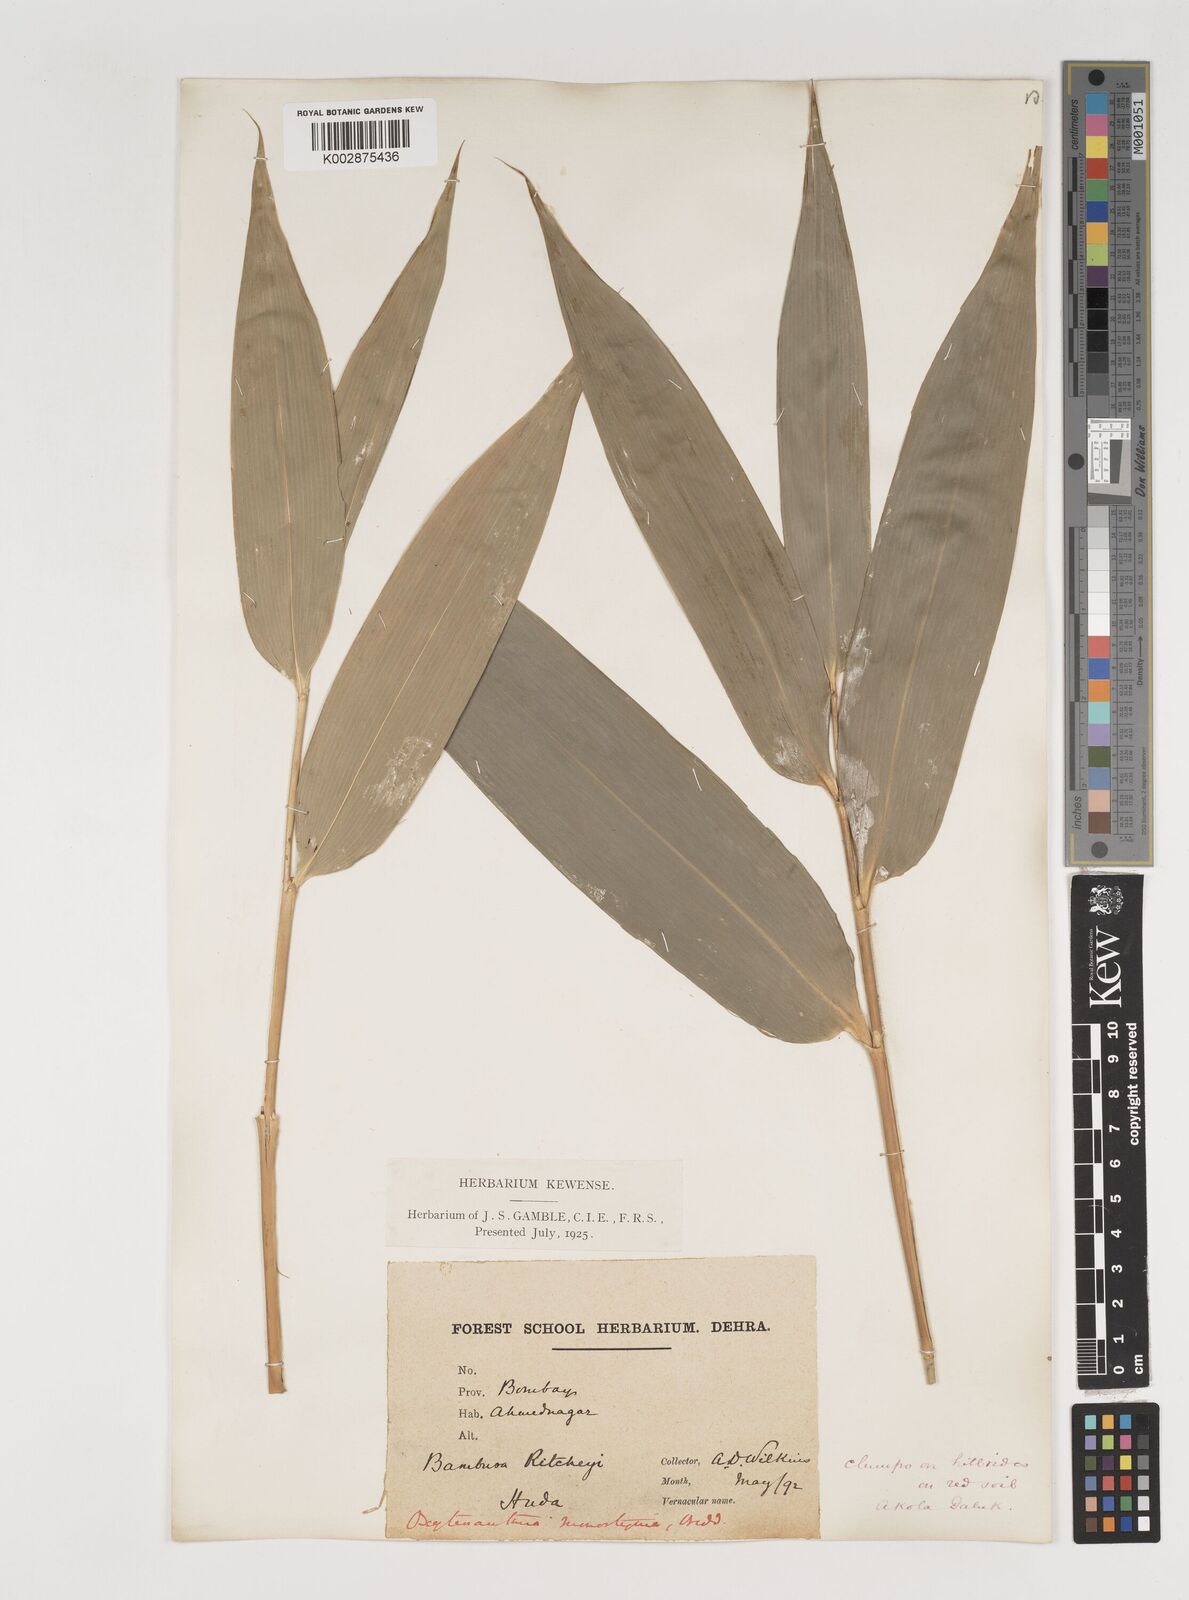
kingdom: Plantae
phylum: Tracheophyta
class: Liliopsida
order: Poales
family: Poaceae
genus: Dendrocalamus
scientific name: Dendrocalamus
